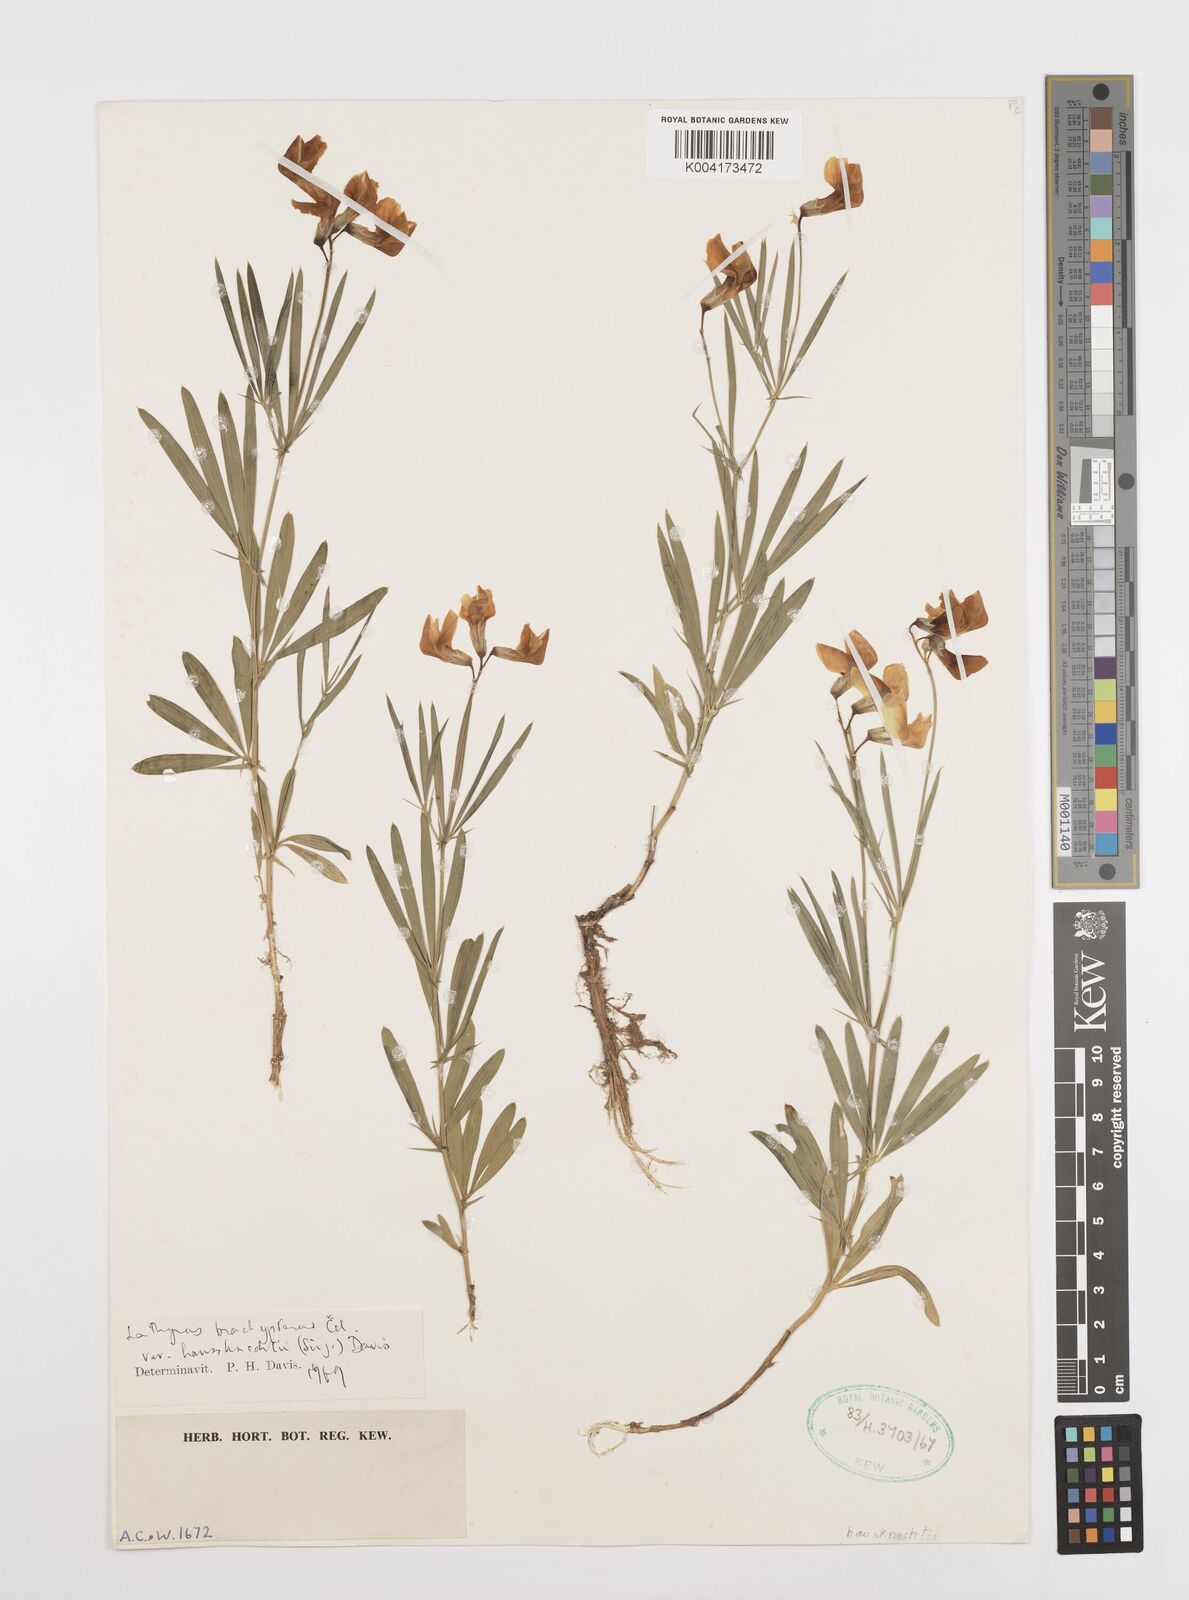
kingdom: Plantae
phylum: Tracheophyta
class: Magnoliopsida
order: Fabales
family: Fabaceae
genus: Lathyrus
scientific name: Lathyrus brachypterus
